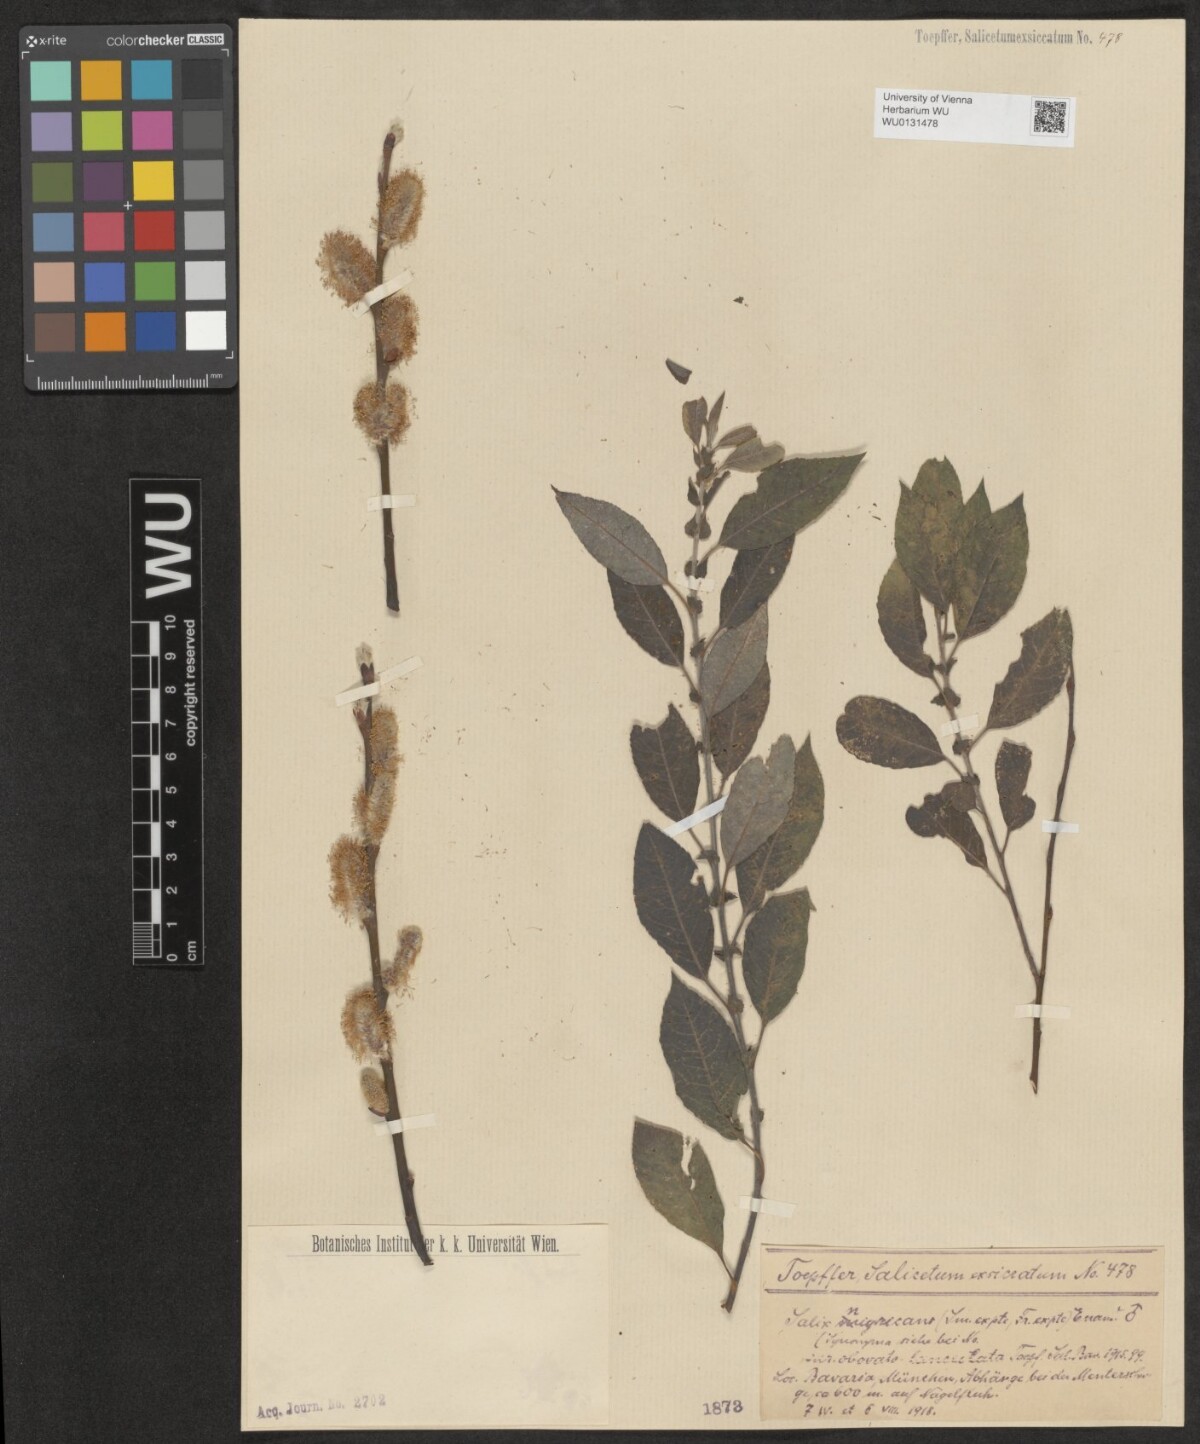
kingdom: Plantae
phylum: Tracheophyta
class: Magnoliopsida
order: Malpighiales
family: Salicaceae
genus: Salix
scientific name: Salix myrsinifolia
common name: Dark-leaved willow
